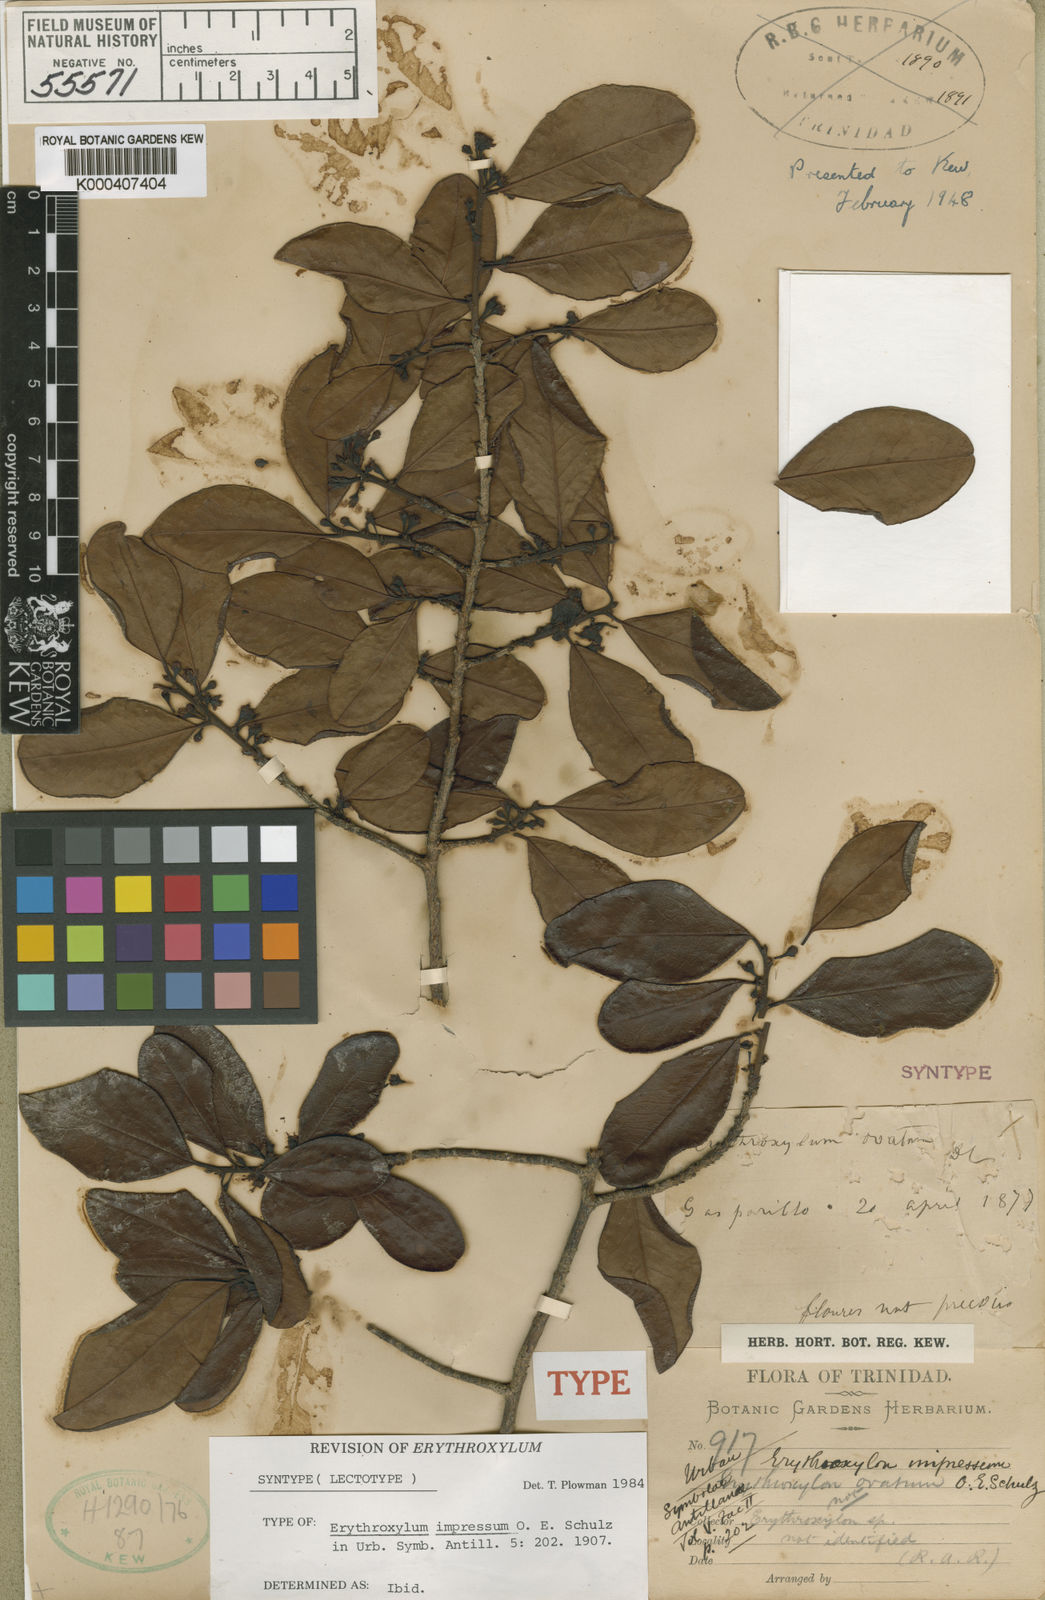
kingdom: Plantae
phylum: Tracheophyta
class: Magnoliopsida
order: Malpighiales
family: Erythroxylaceae
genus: Erythroxylum
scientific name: Erythroxylum impressum
